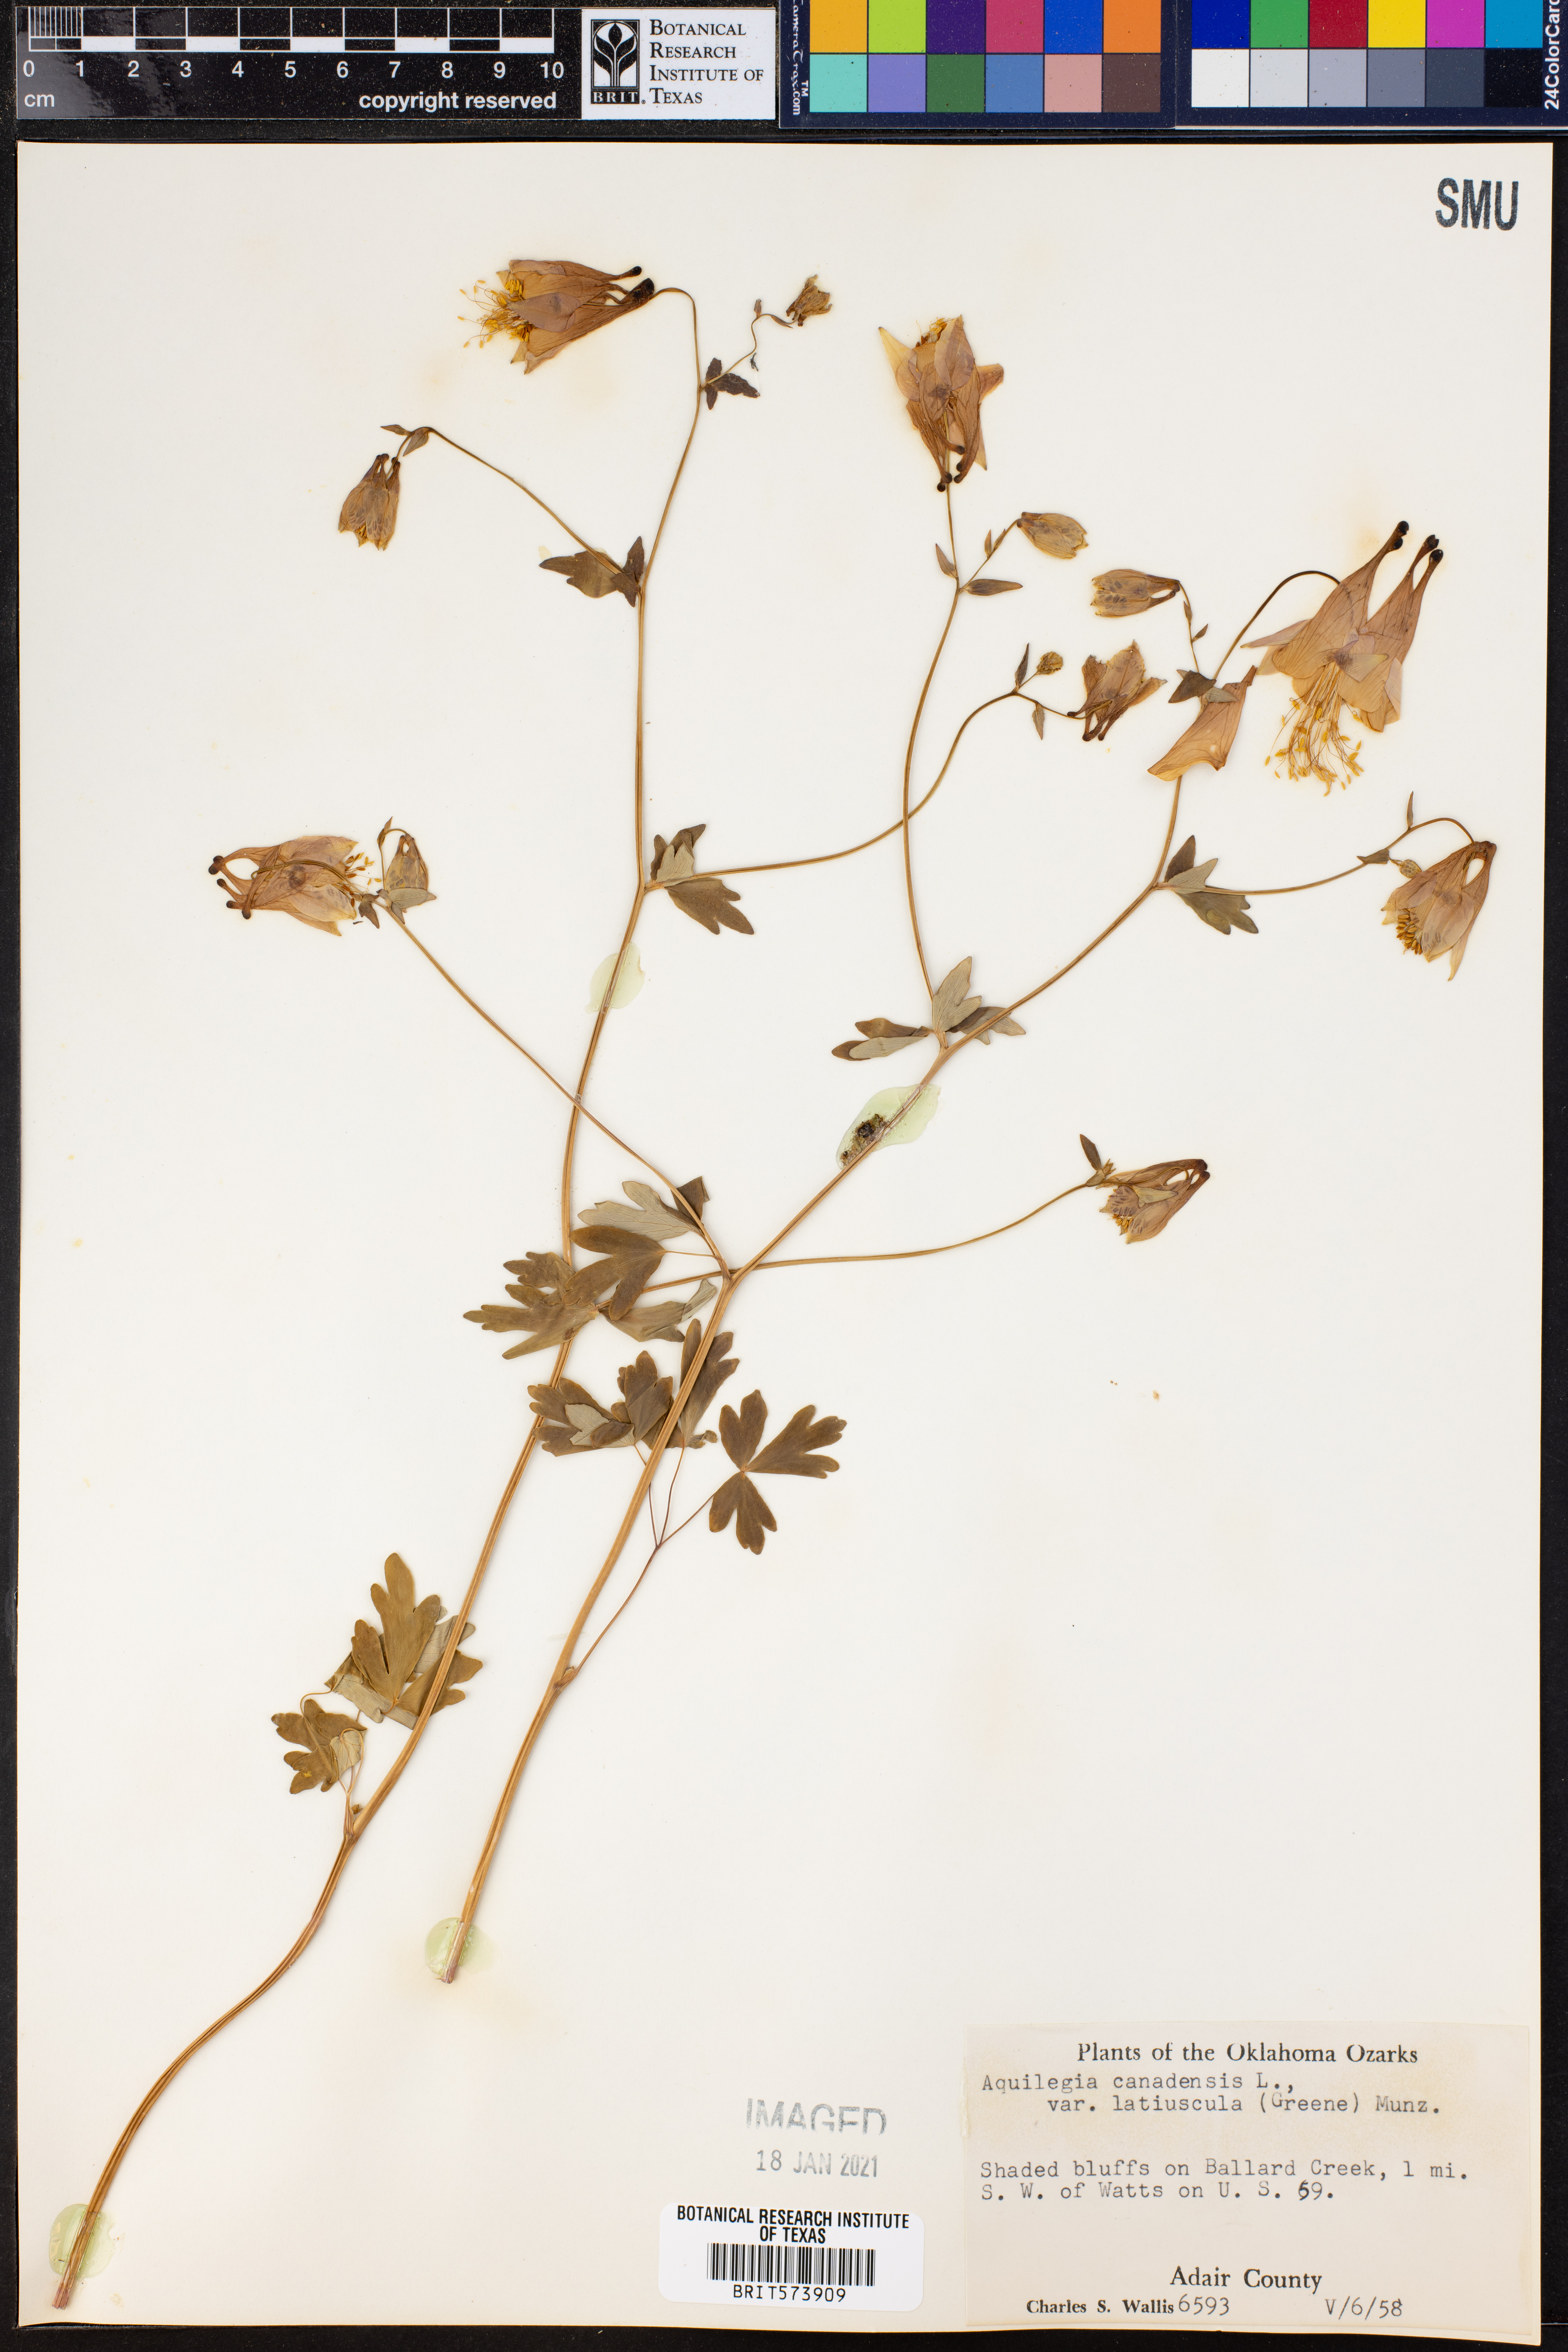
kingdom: Plantae
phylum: Tracheophyta
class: Magnoliopsida
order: Ranunculales
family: Ranunculaceae
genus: Aquilegia
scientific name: Aquilegia canadensis
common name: American columbine
